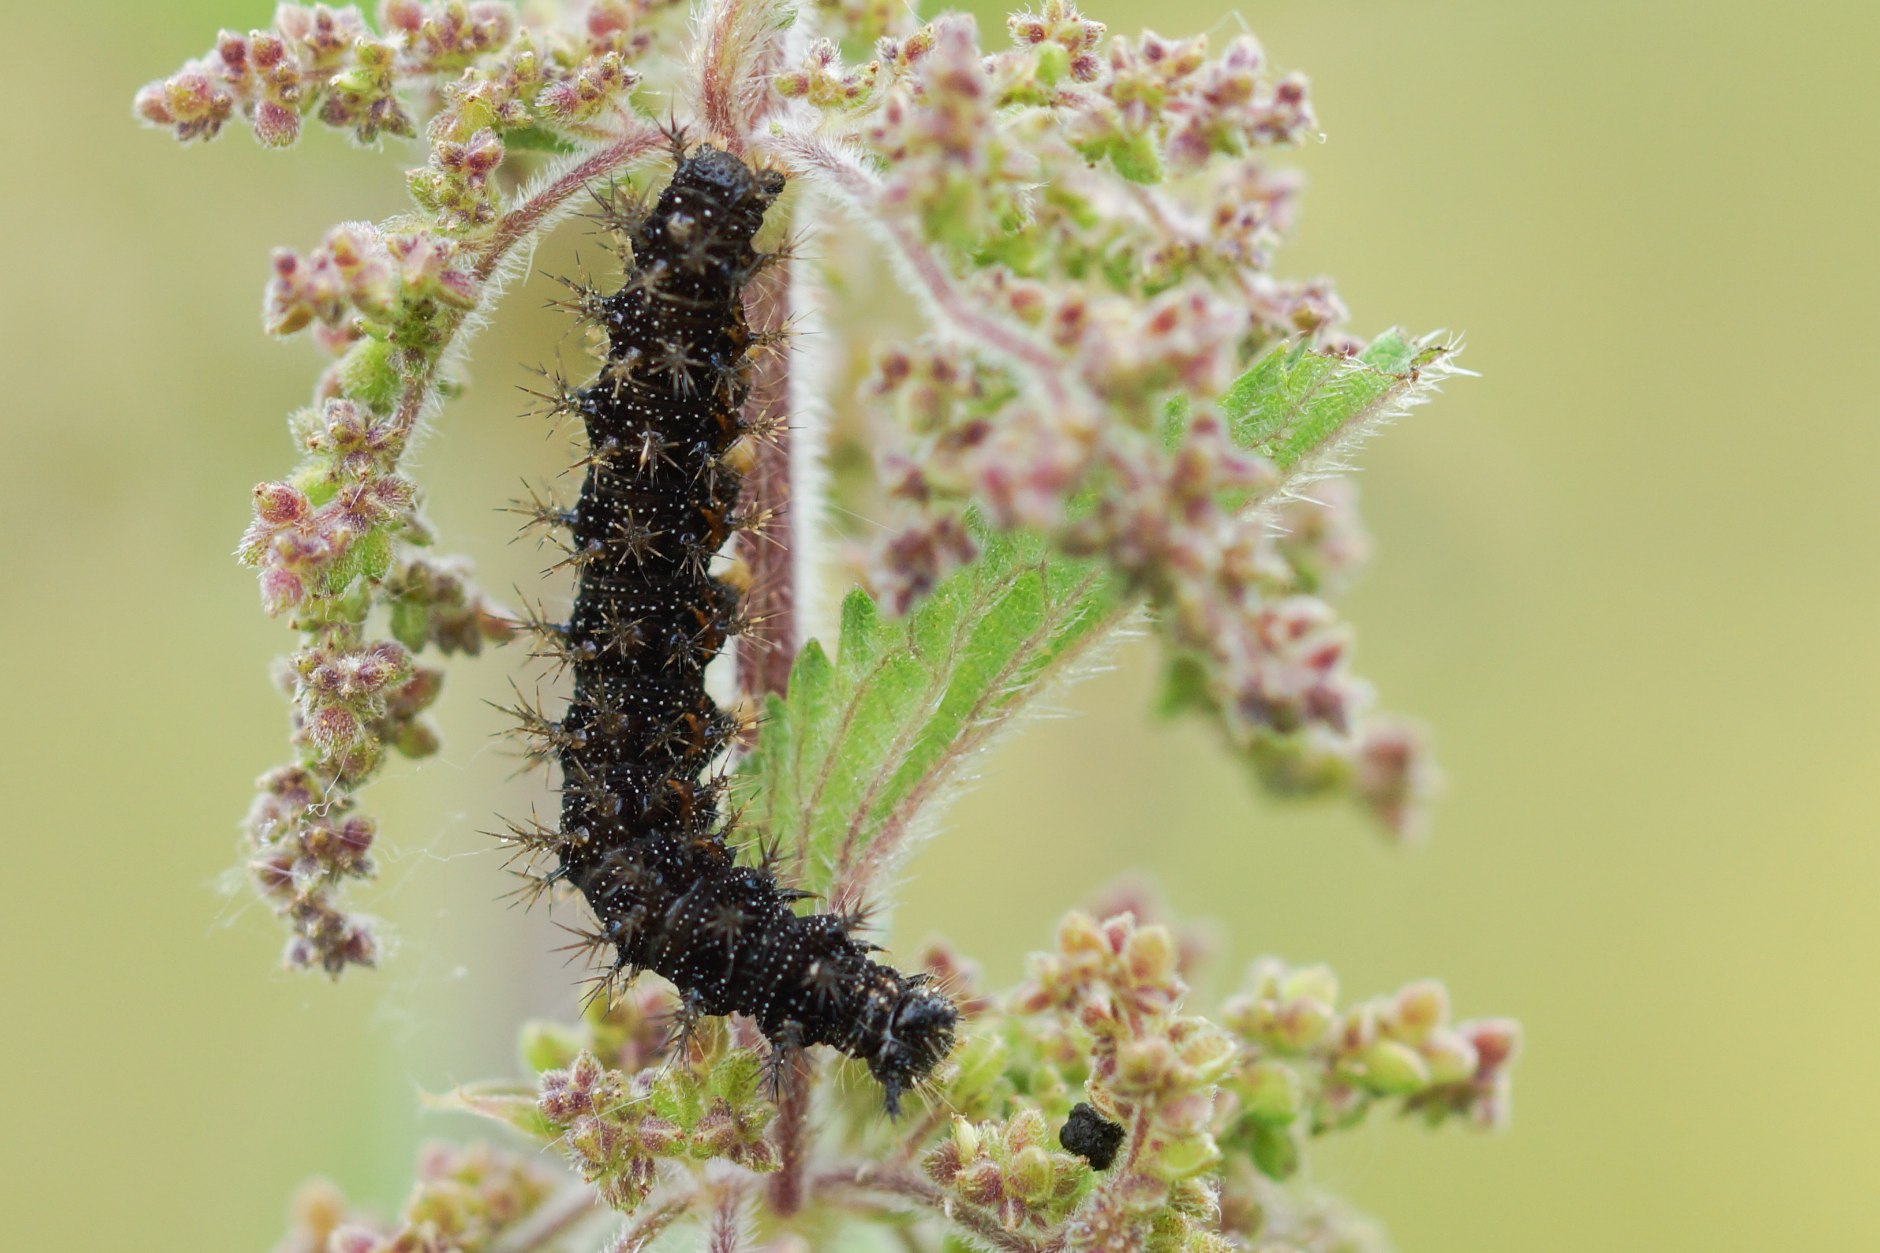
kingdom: Animalia
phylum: Arthropoda
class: Insecta
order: Lepidoptera
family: Nymphalidae
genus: Aglais
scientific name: Aglais io
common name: Dagpåfugleøje
